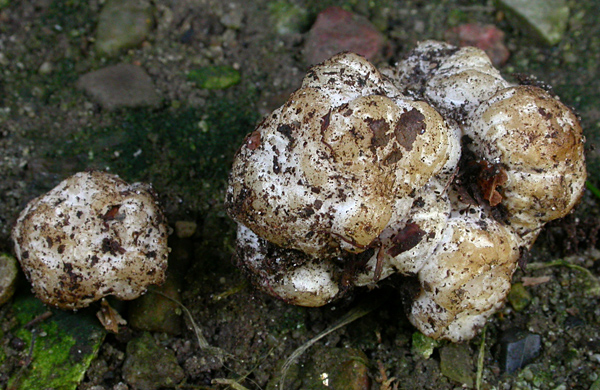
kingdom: Fungi
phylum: Ascomycota
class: Pezizomycetes
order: Pezizales
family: Pezizaceae
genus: Hydnobolites
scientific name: Hydnobolites cerebriformis
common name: almindelig hjernetrøffel
